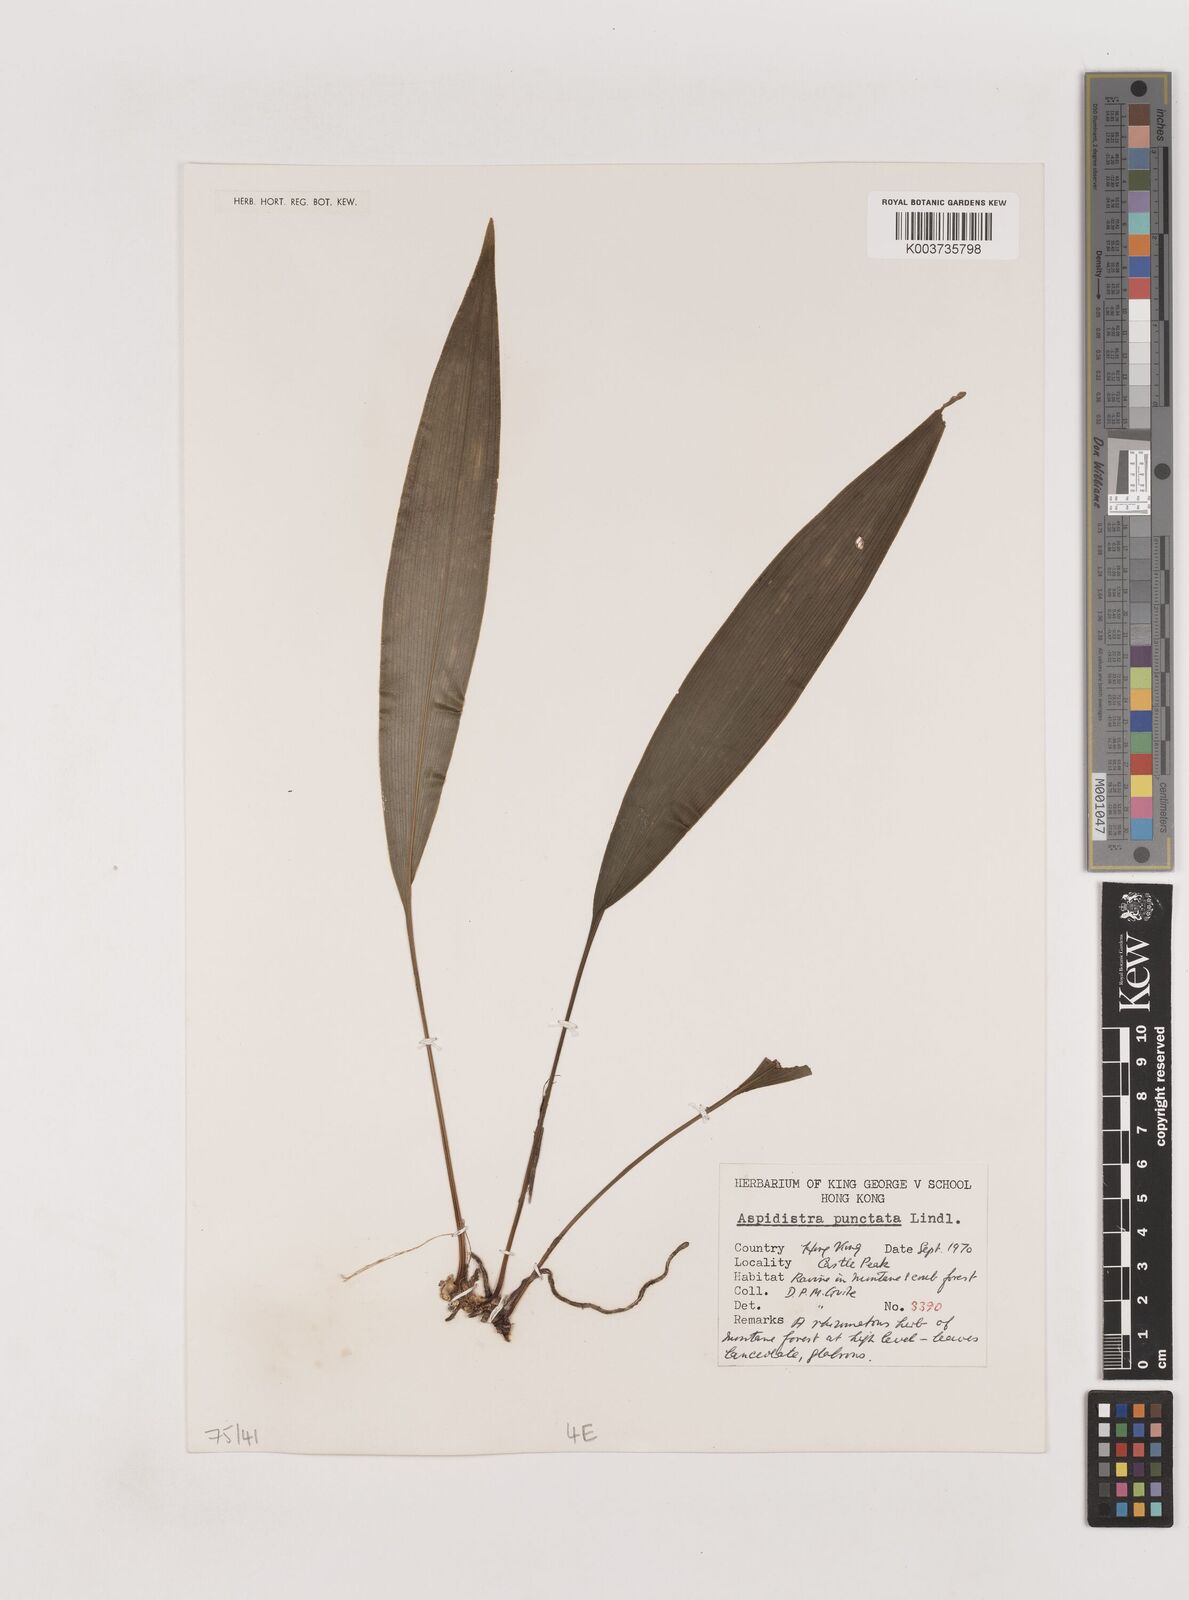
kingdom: Plantae
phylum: Tracheophyta
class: Liliopsida
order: Asparagales
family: Asparagaceae
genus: Aspidistra
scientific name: Aspidistra elatior
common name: Cast-iron-plant
